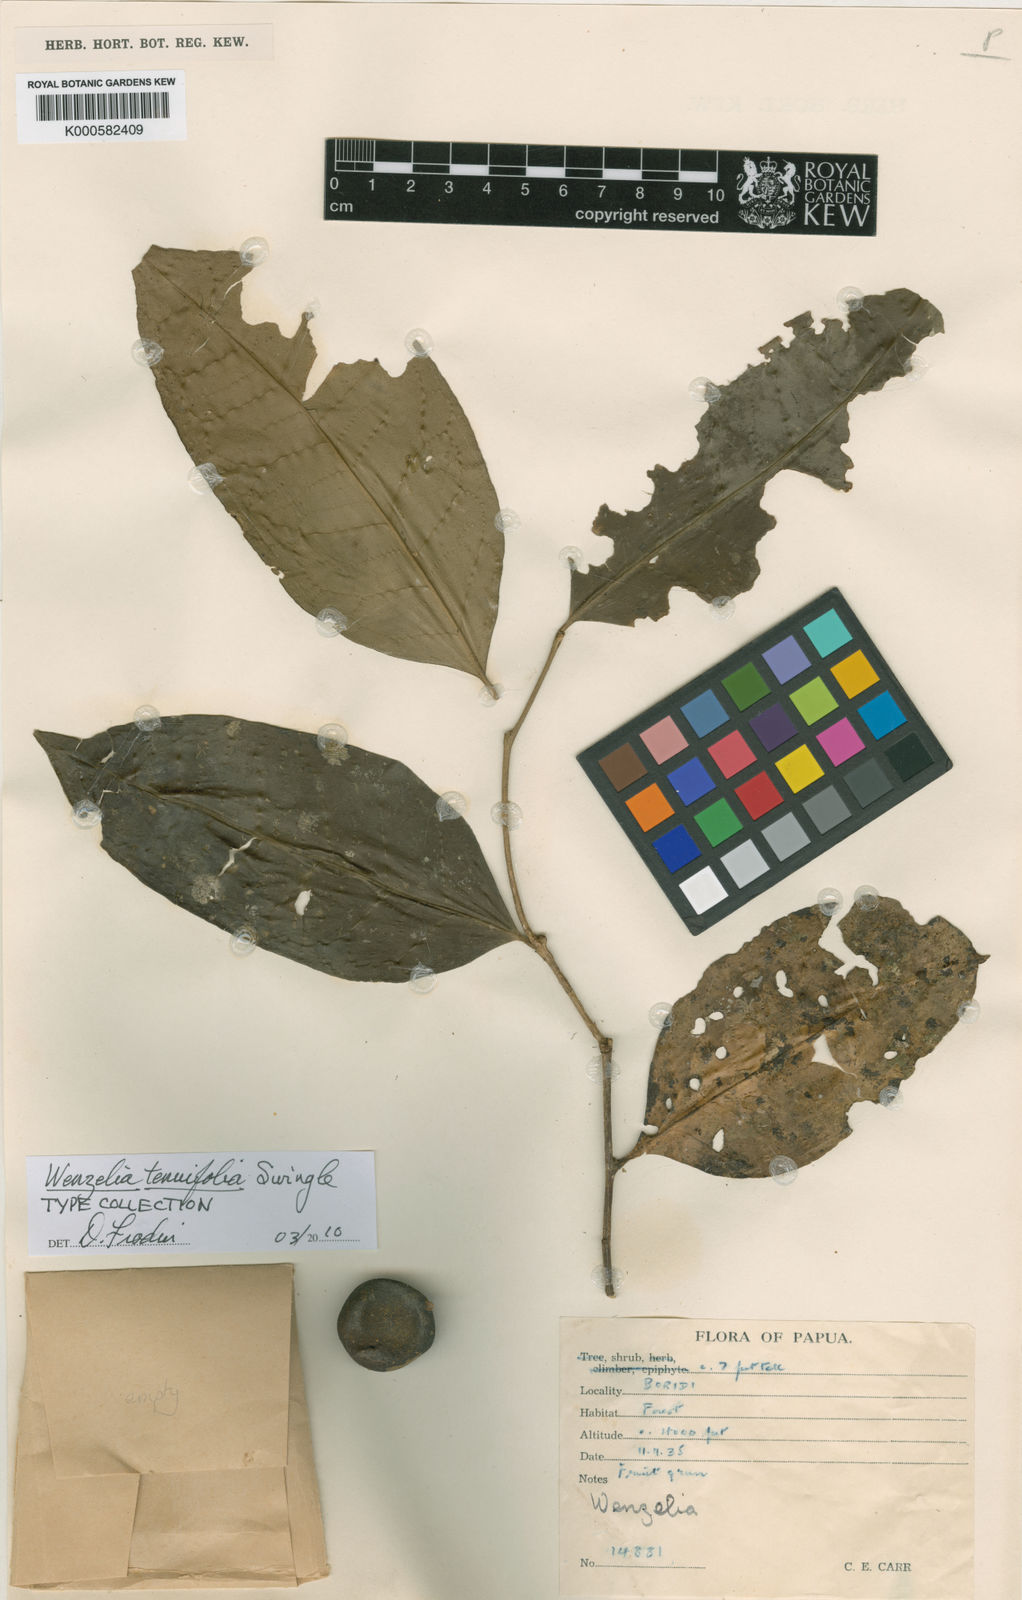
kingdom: Plantae
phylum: Tracheophyta
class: Magnoliopsida
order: Sapindales
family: Rutaceae
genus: Wenzelia
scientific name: Wenzelia tenuifolia
